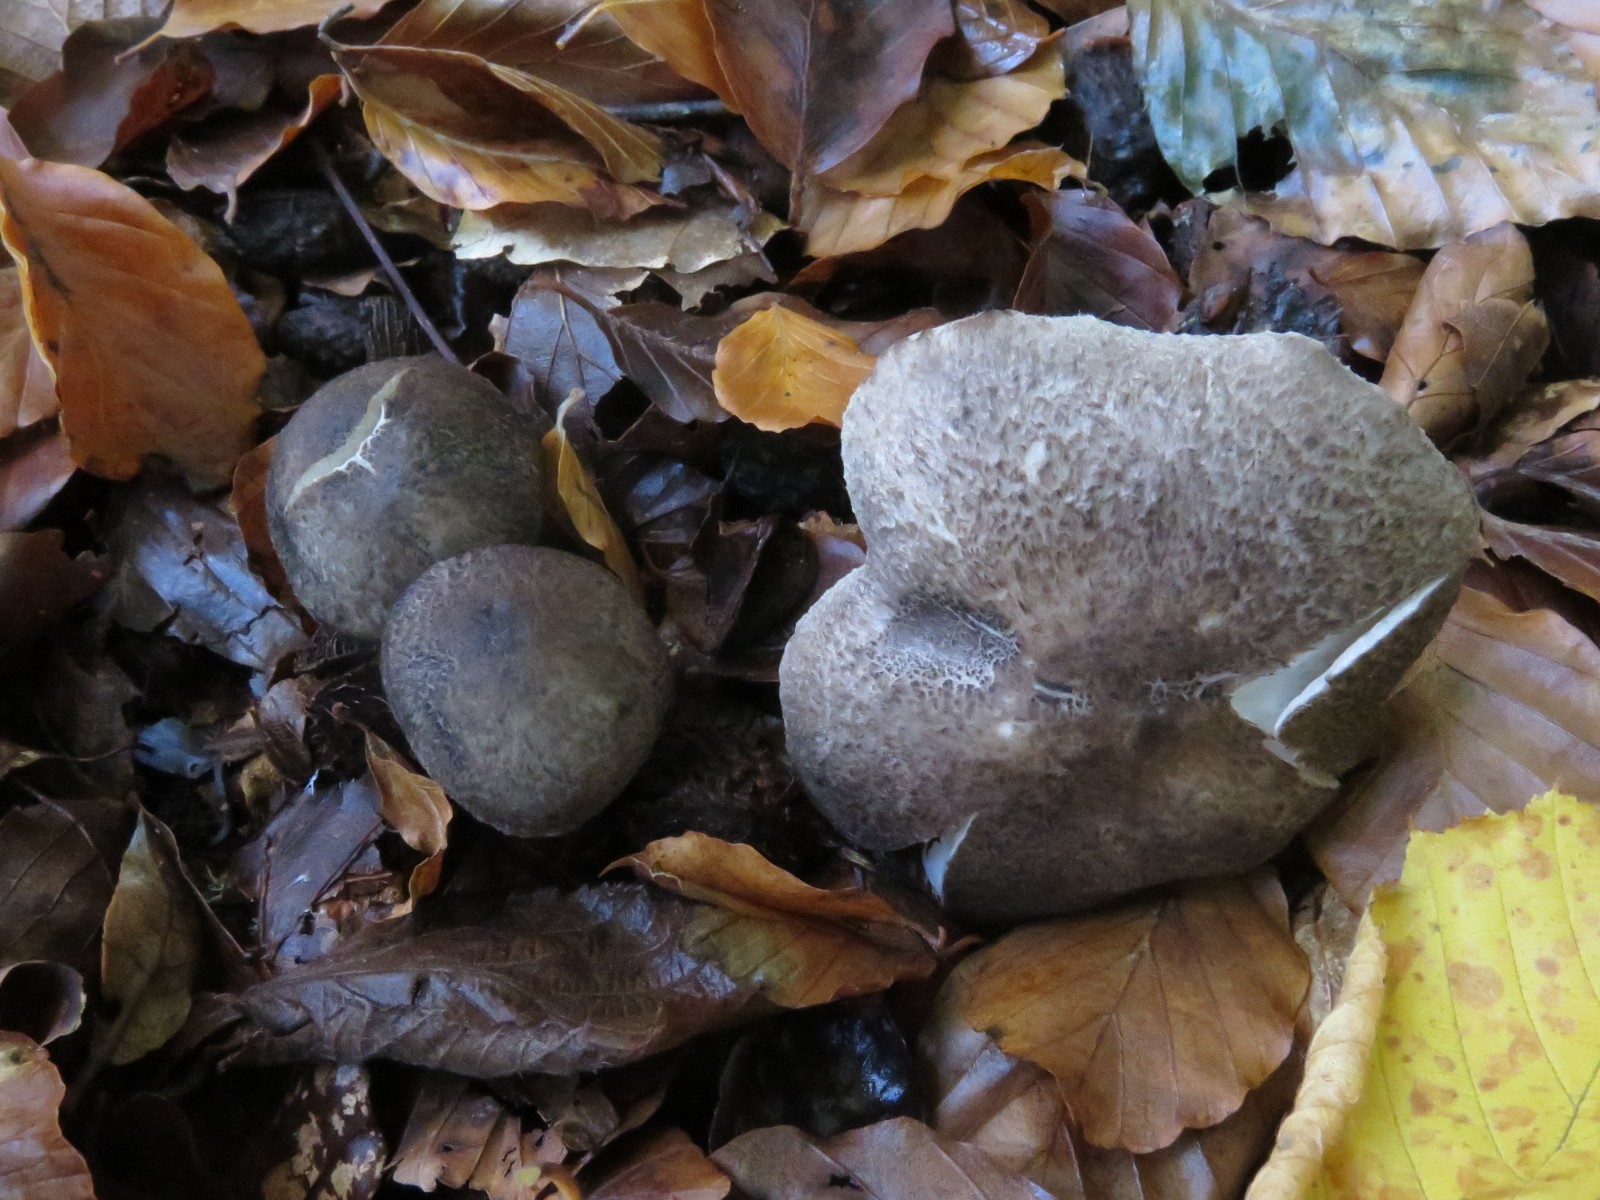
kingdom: Fungi
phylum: Basidiomycota
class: Agaricomycetes
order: Agaricales
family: Tricholomataceae
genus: Tricholoma
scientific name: Tricholoma orirubens
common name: rødbladet ridderhat
